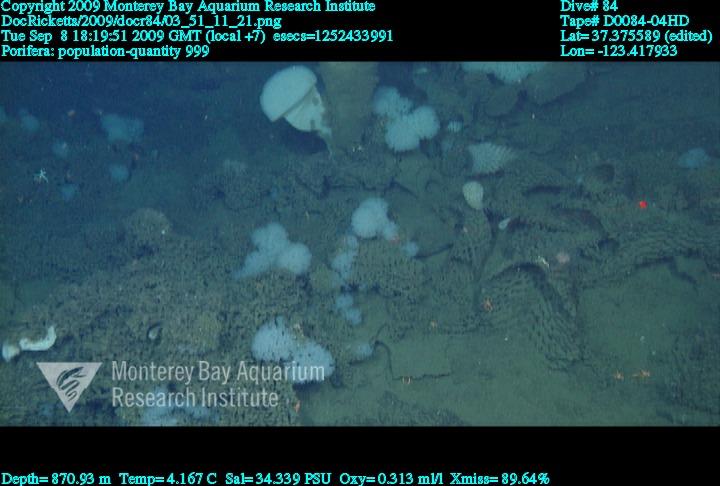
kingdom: Animalia
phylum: Porifera
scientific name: Porifera
